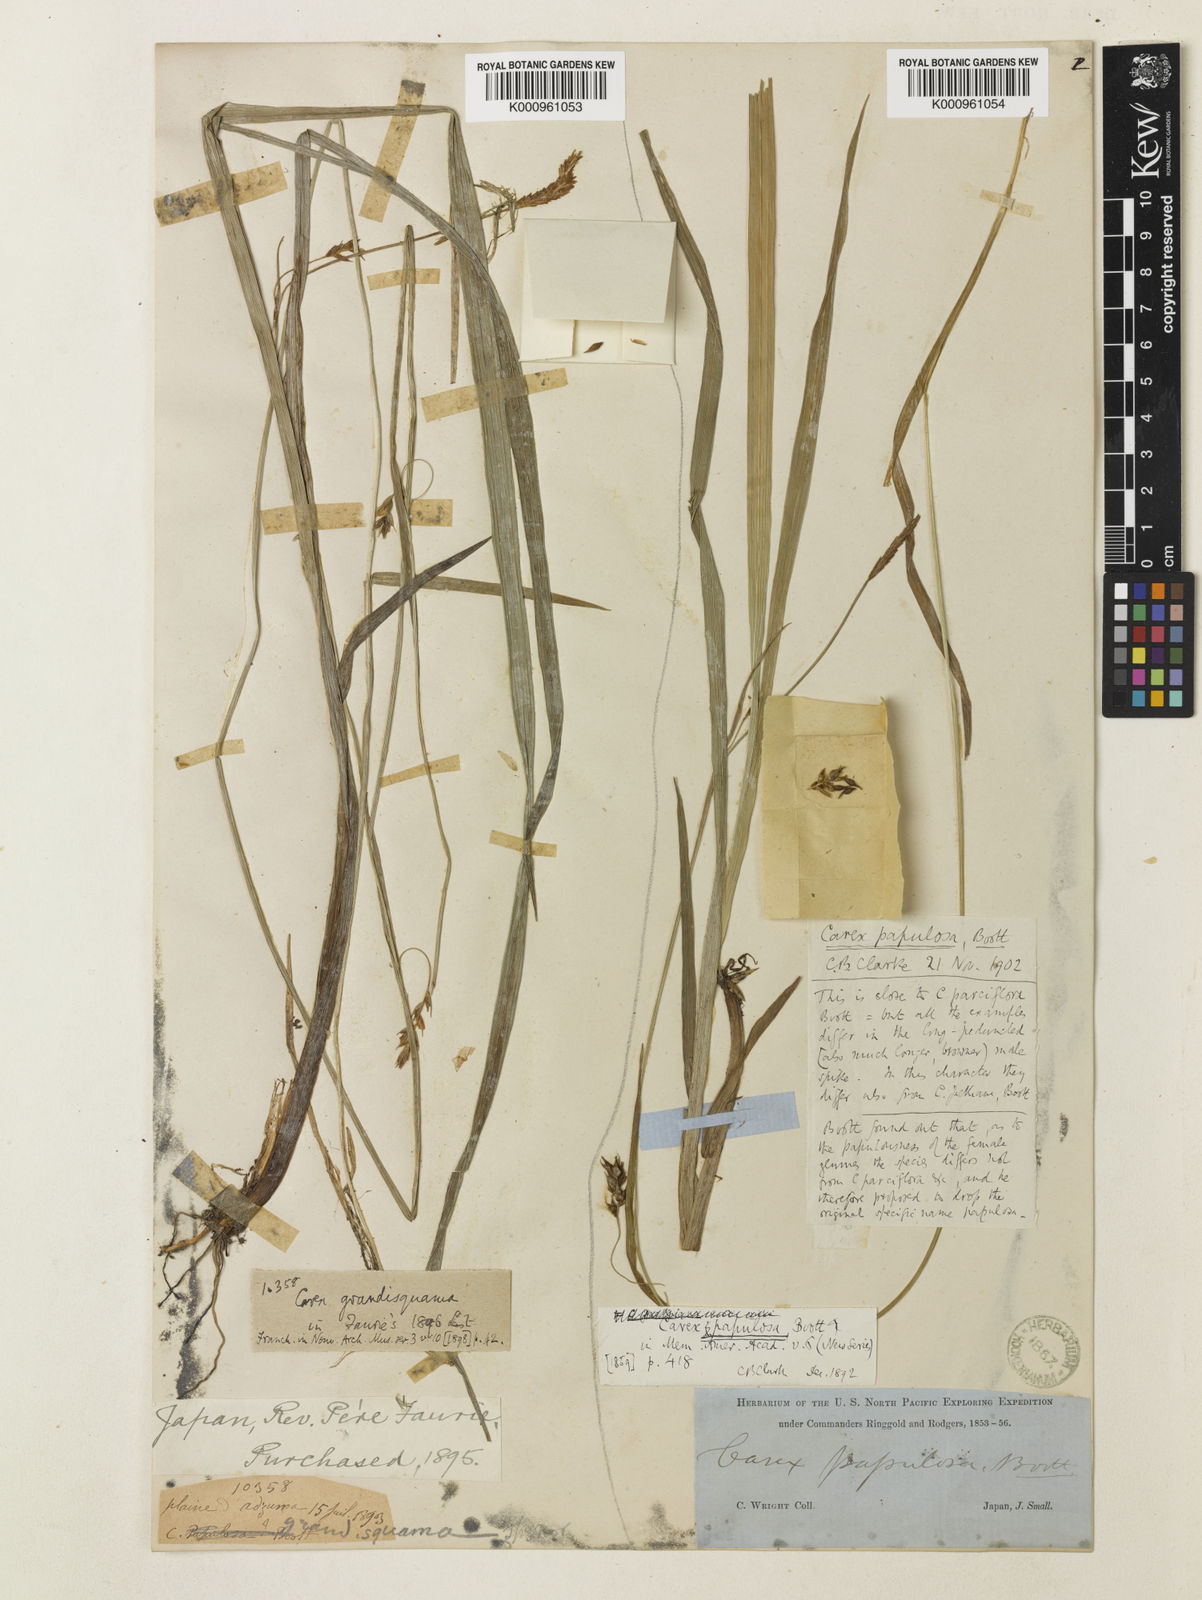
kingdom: Plantae
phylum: Tracheophyta
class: Liliopsida
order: Poales
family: Cyperaceae
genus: Carex
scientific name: Carex papulosa
